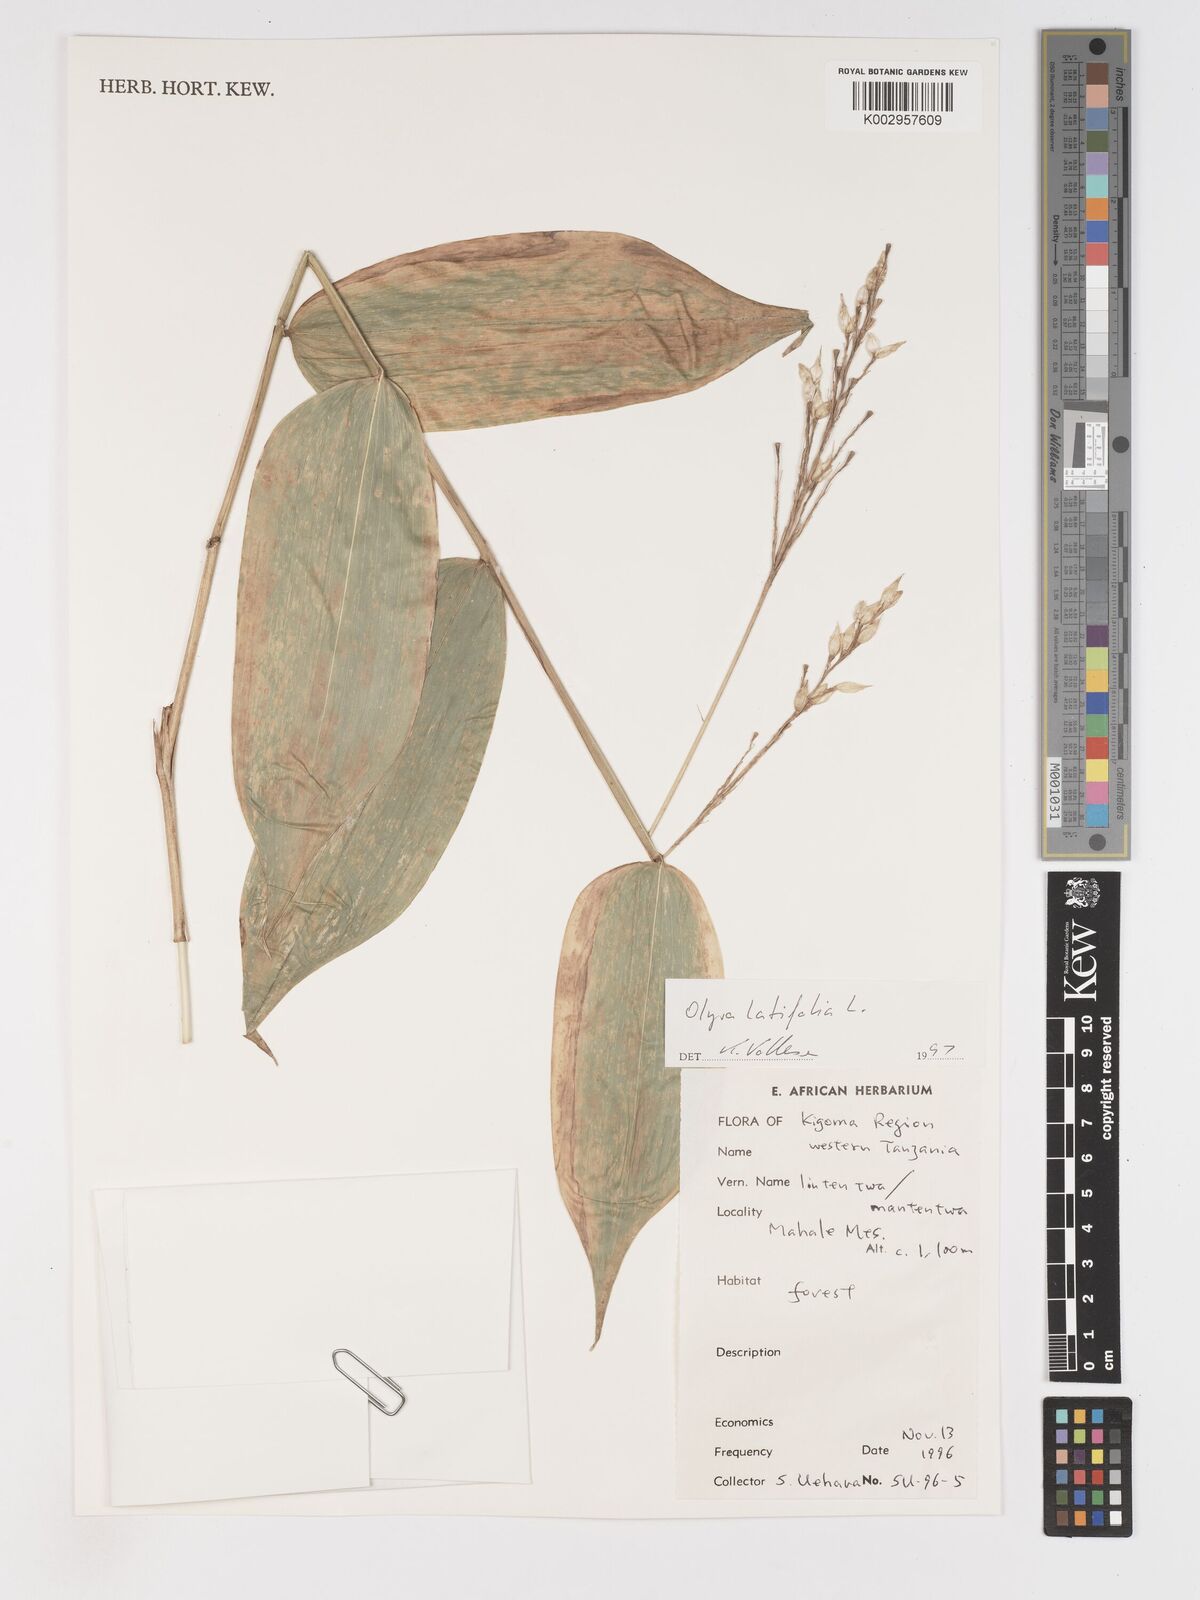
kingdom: Plantae
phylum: Tracheophyta
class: Liliopsida
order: Poales
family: Poaceae
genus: Olyra
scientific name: Olyra latifolia
